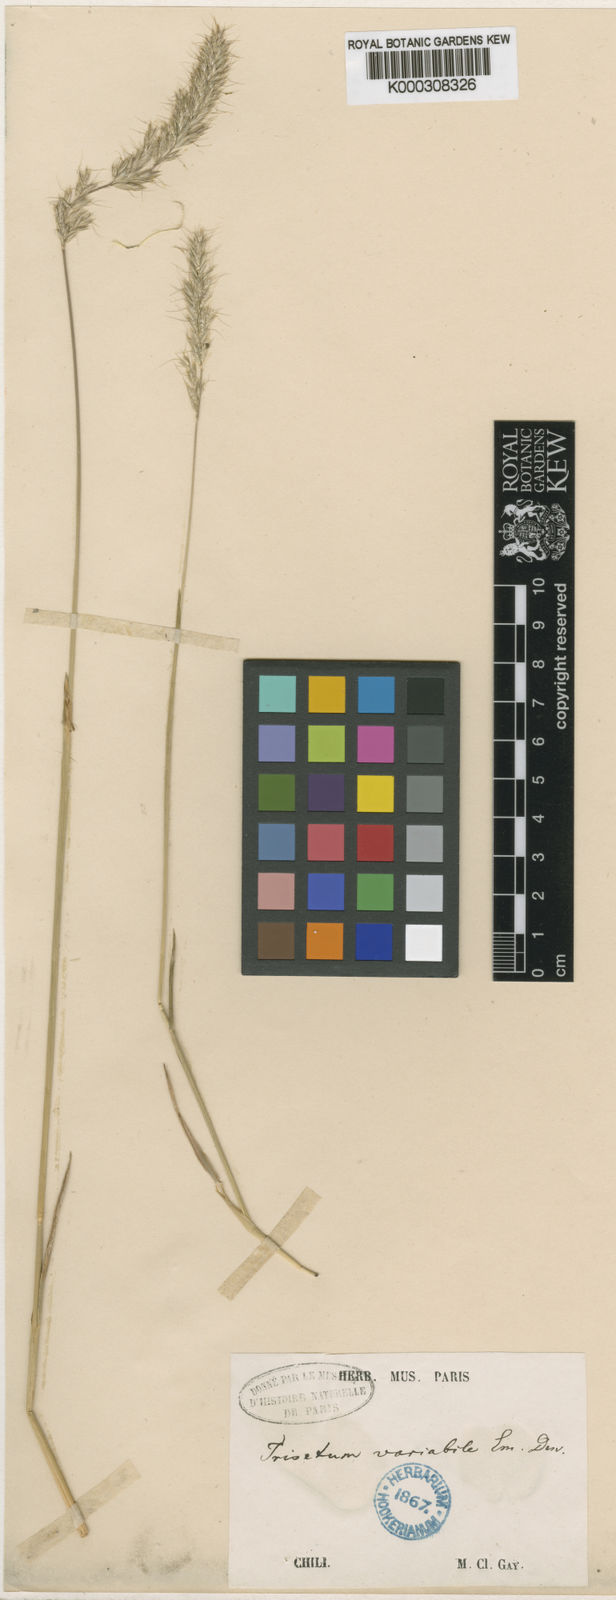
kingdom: Plantae
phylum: Tracheophyta
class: Liliopsida
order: Poales
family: Poaceae
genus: Koeleria
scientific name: Koeleria spicata
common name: Mountain trisetum
